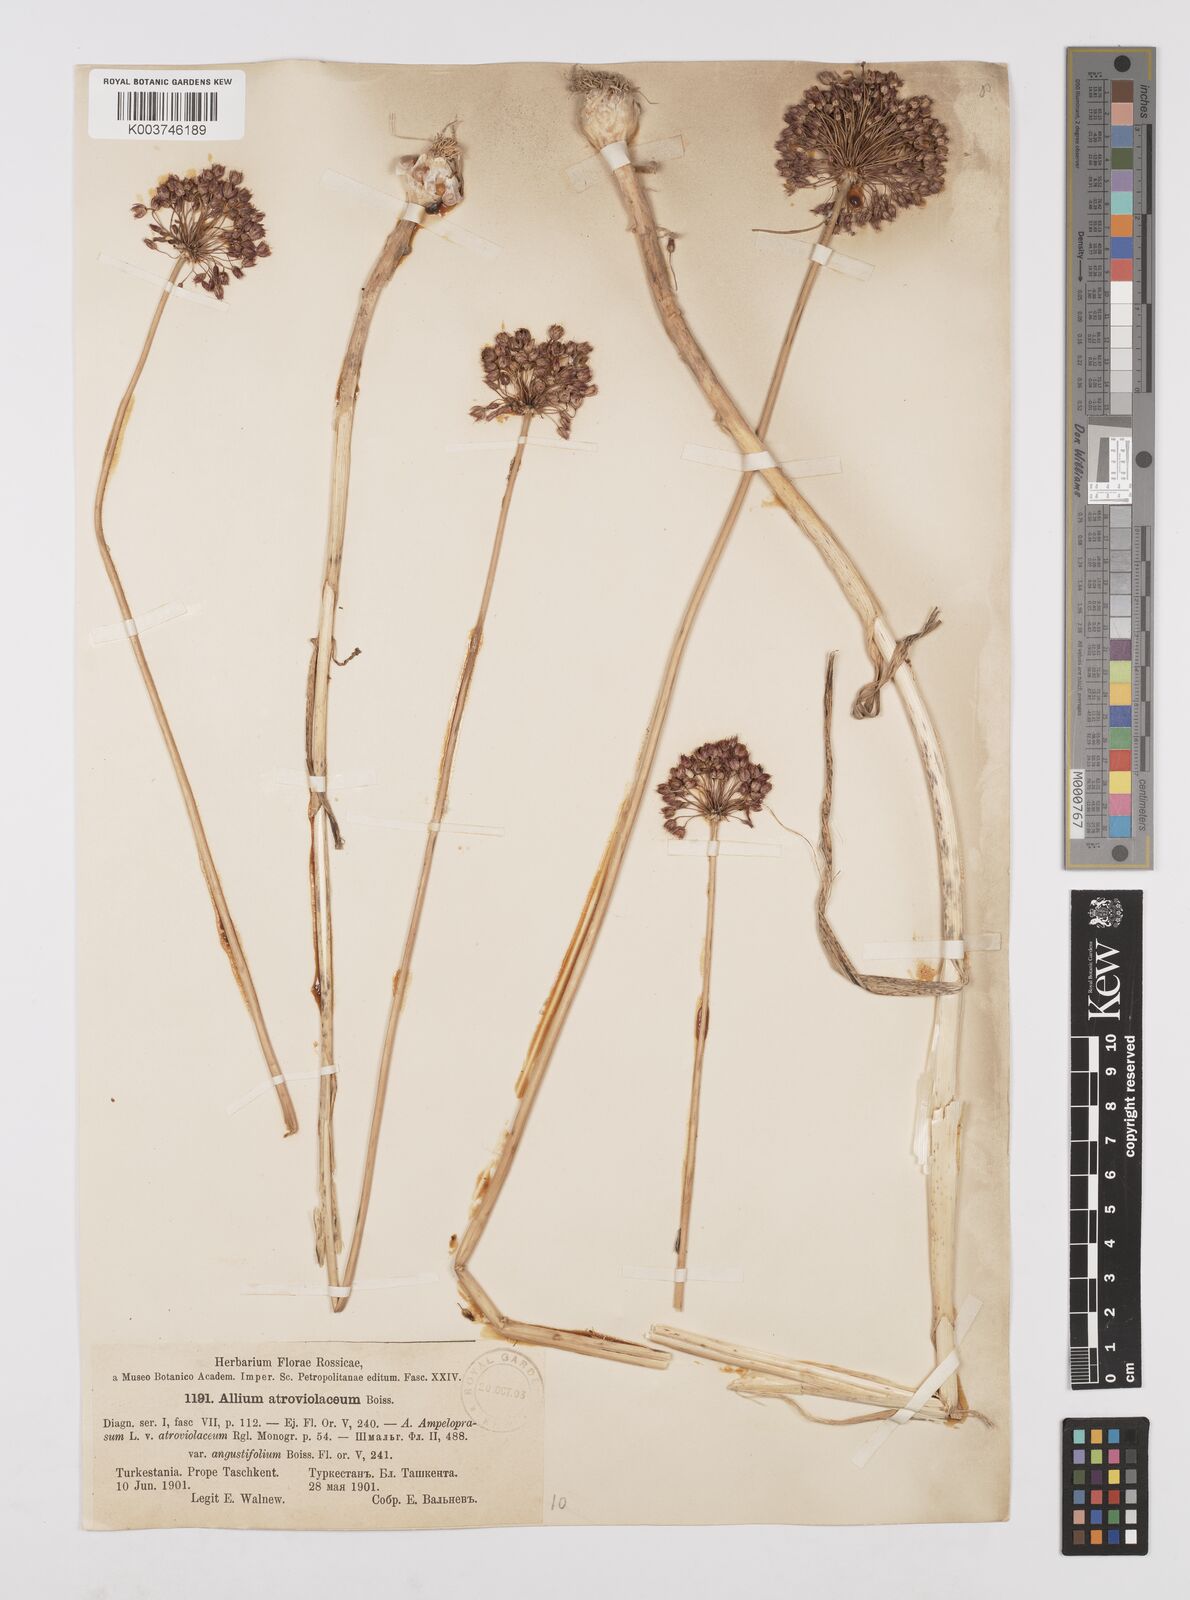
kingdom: Plantae
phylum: Tracheophyta
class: Liliopsida
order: Asparagales
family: Amaryllidaceae
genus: Allium
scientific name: Allium atroviolaceum
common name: Broadleaf wild leek
